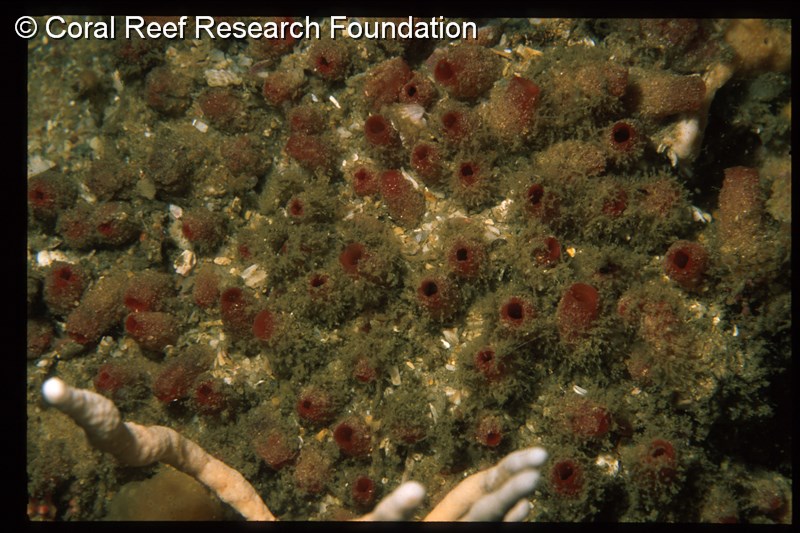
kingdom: Animalia
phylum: Chordata
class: Ascidiacea
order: Stolidobranchia
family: Styelidae
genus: Polyandrocarpa
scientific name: Polyandrocarpa anguinea
